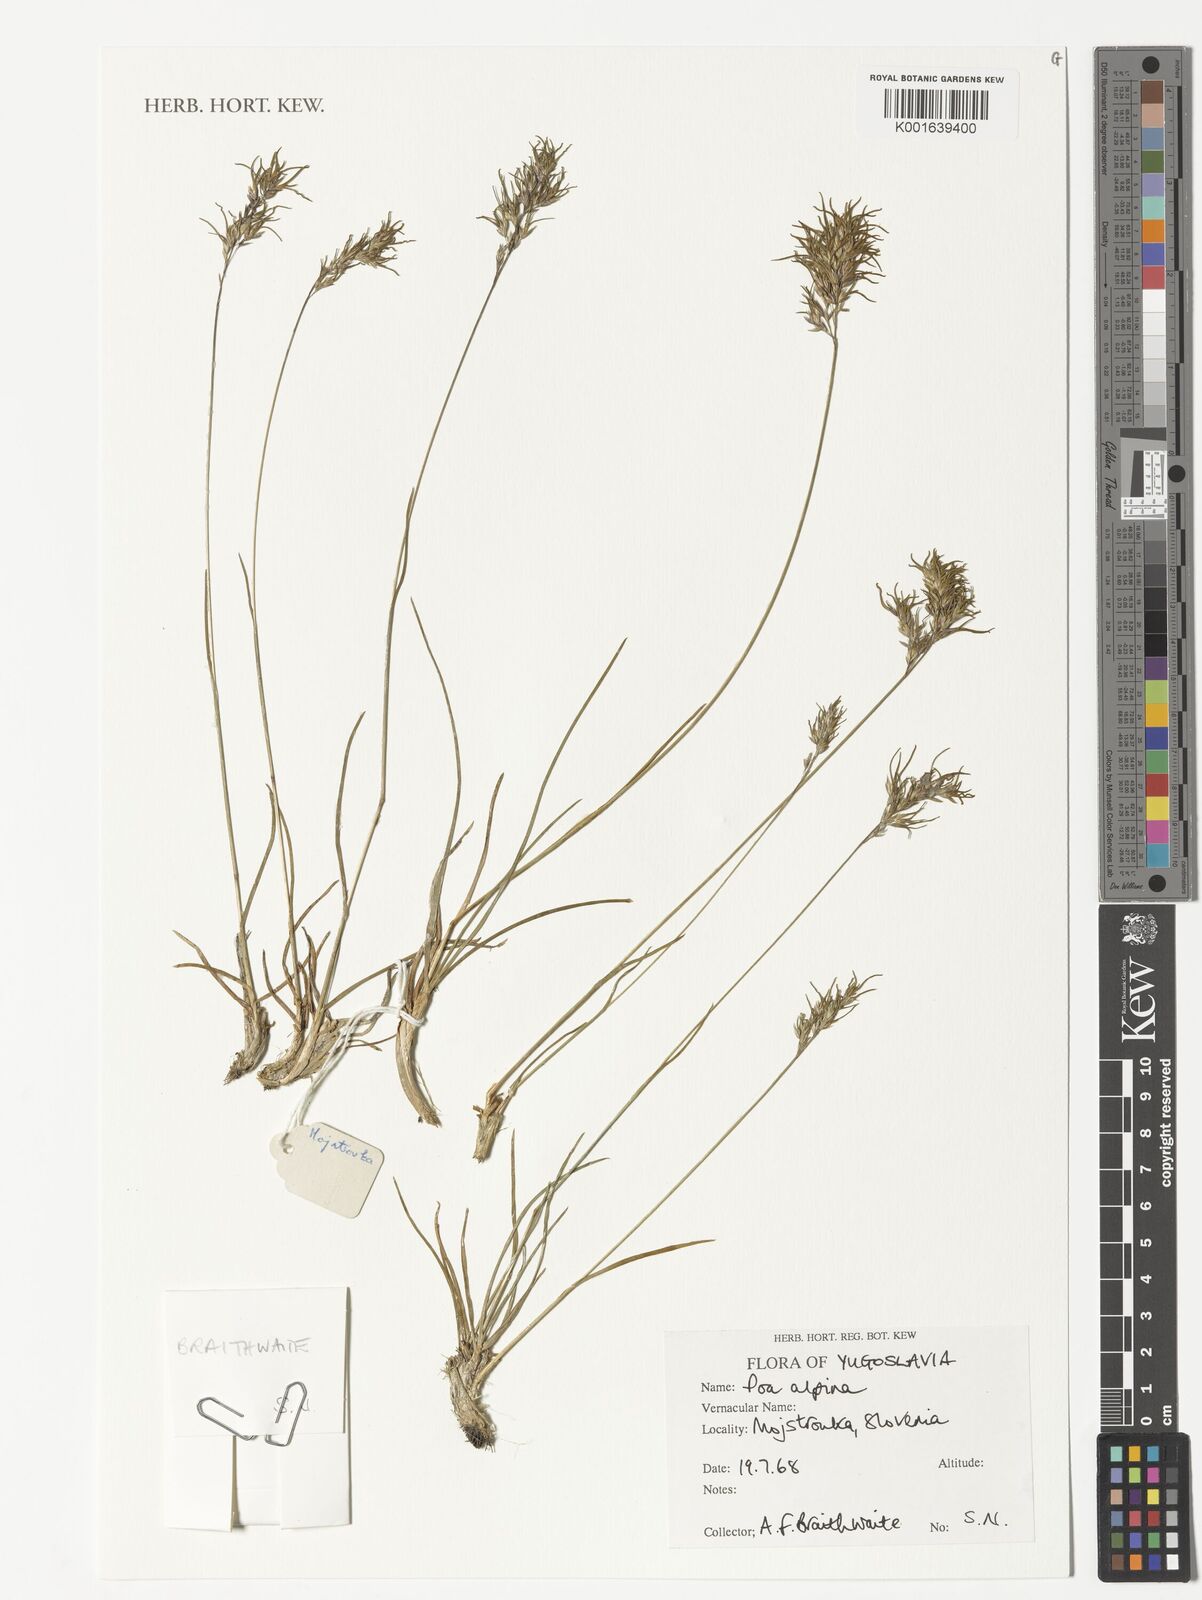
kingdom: Plantae
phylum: Tracheophyta
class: Liliopsida
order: Poales
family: Poaceae
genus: Poa
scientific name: Poa alpina
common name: Alpine bluegrass
